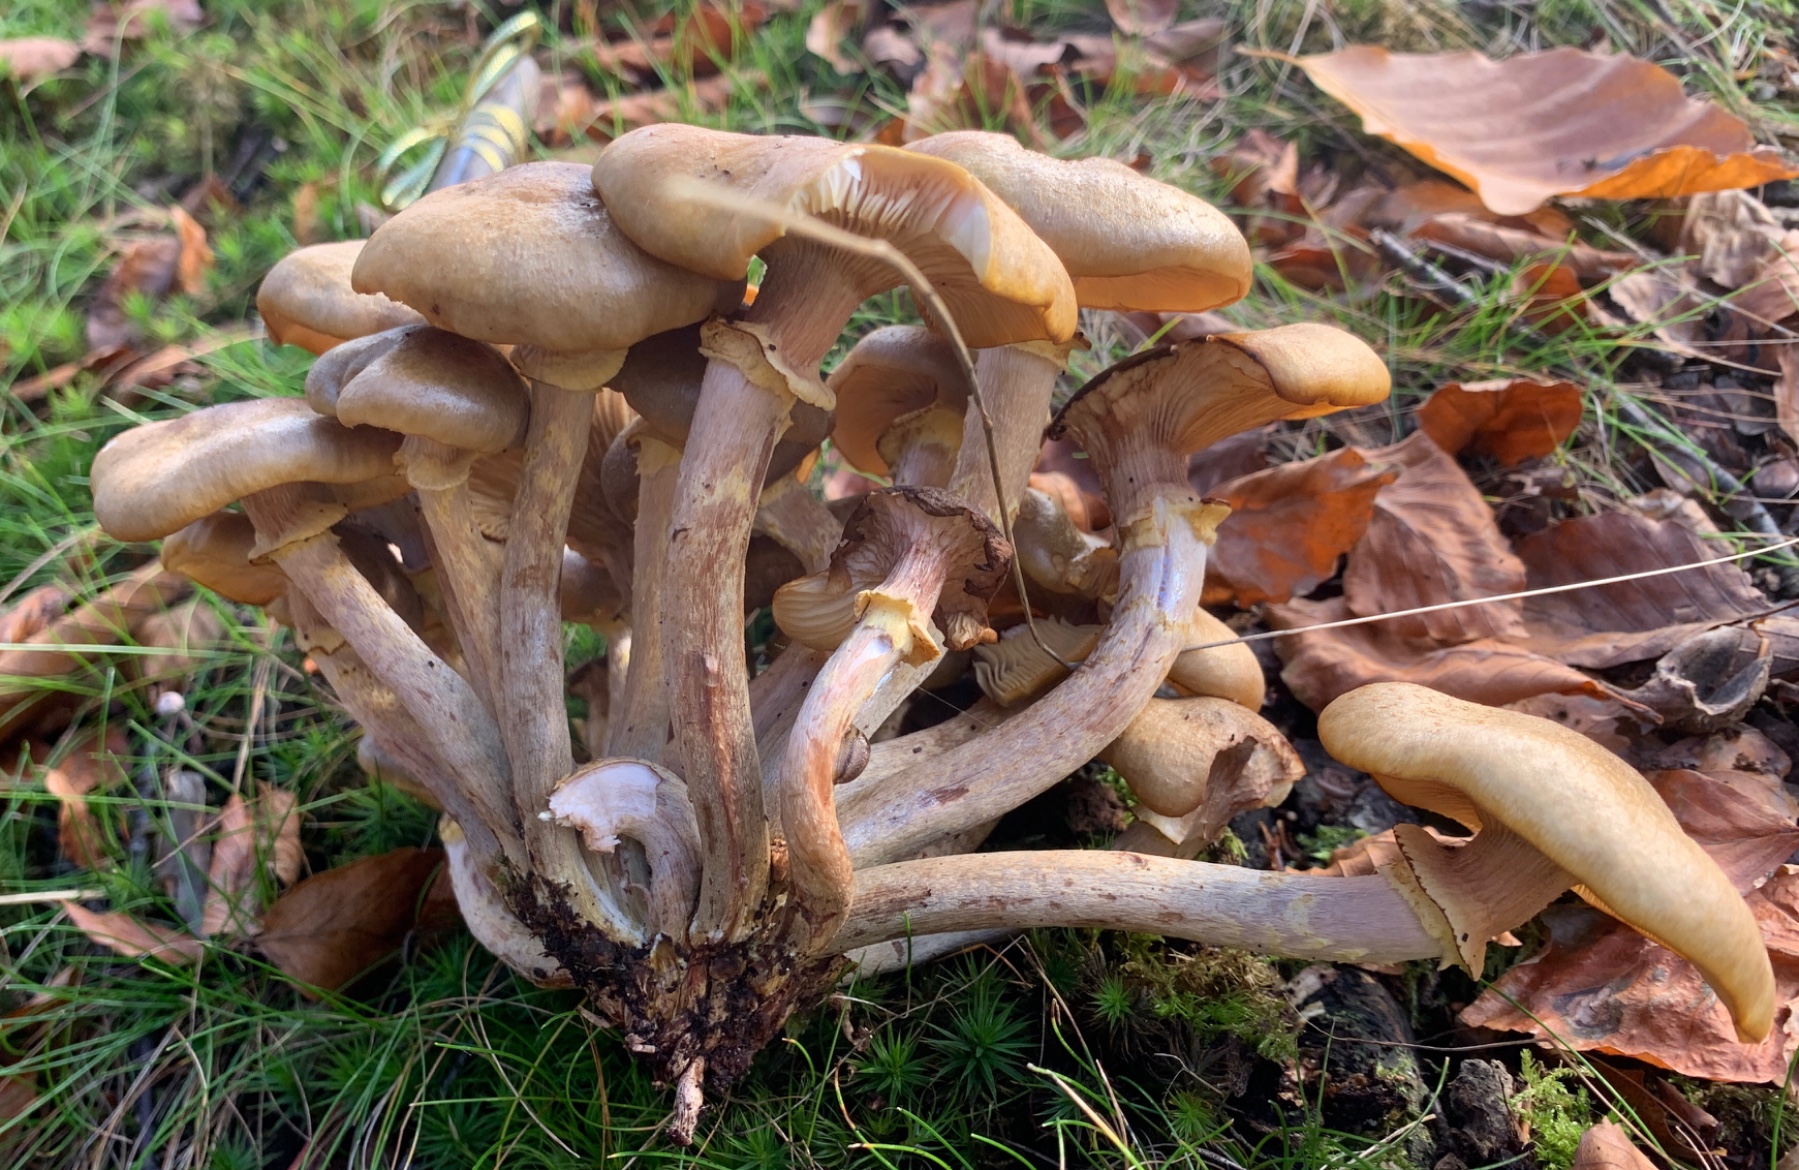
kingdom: Fungi
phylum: Basidiomycota
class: Agaricomycetes
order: Agaricales
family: Physalacriaceae
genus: Armillaria
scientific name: Armillaria mellea
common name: ægte honningsvamp
